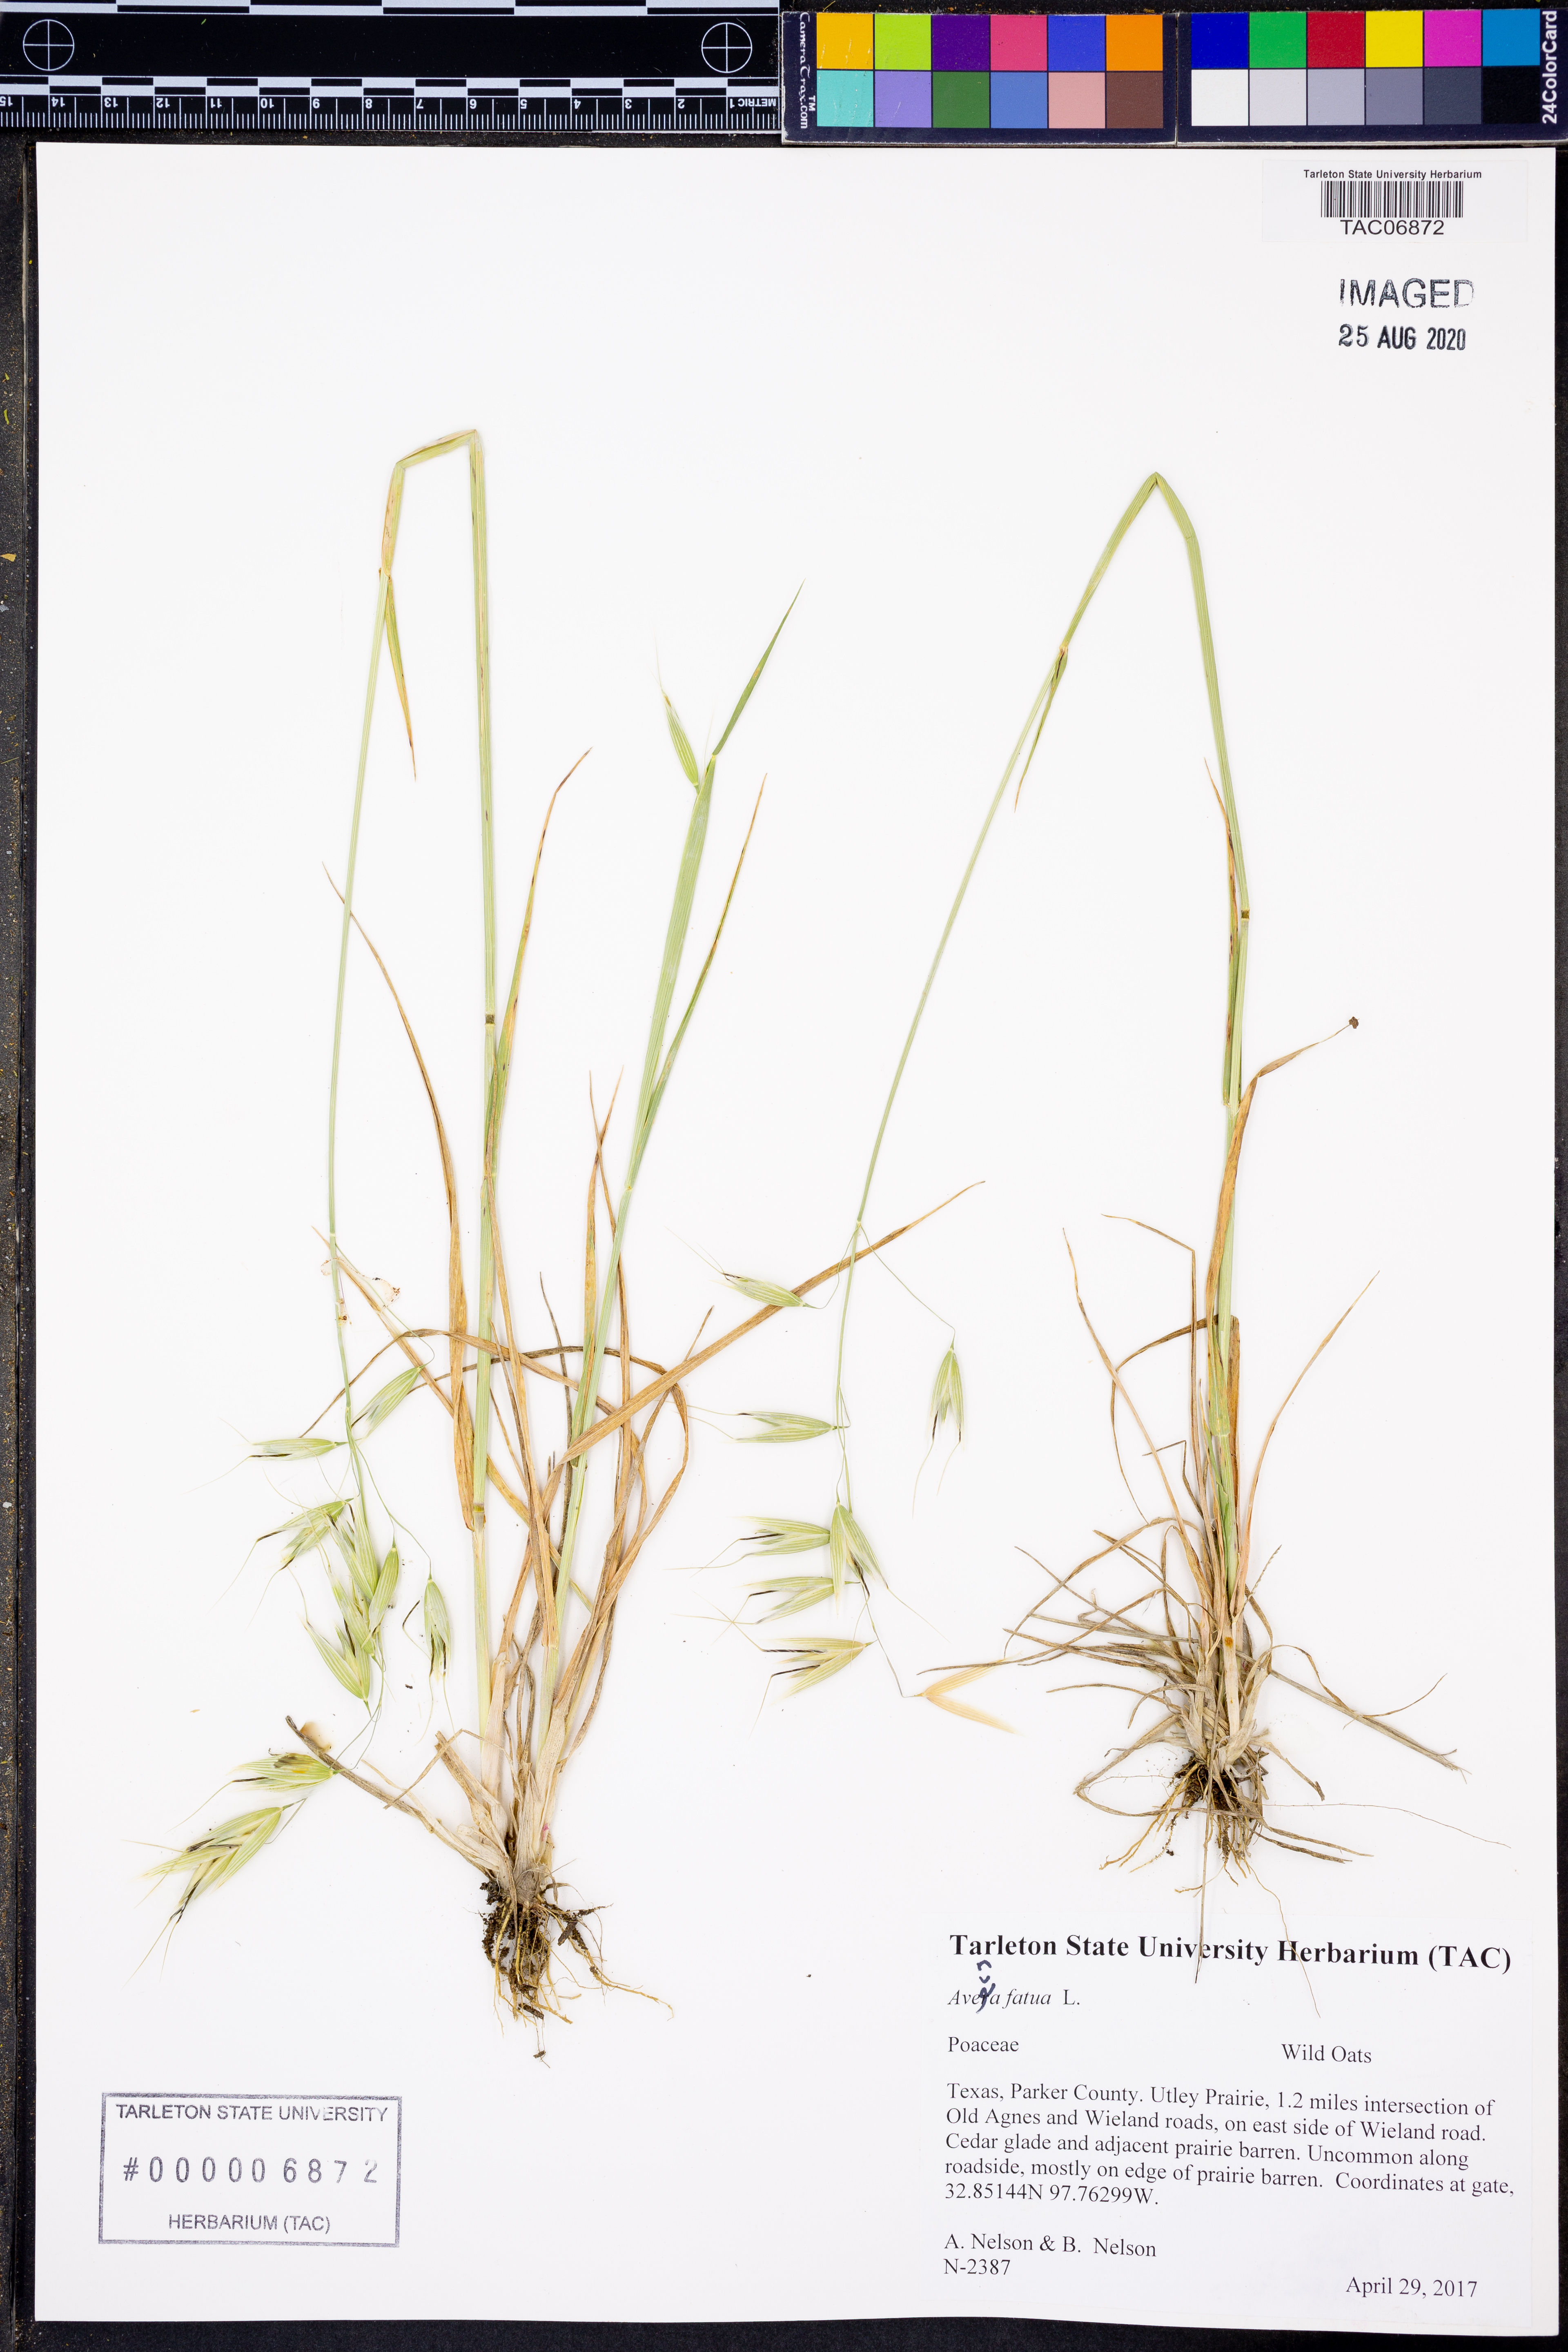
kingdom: Plantae
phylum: Tracheophyta
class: Liliopsida
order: Poales
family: Poaceae
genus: Avena
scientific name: Avena fatua
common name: Wild oat
